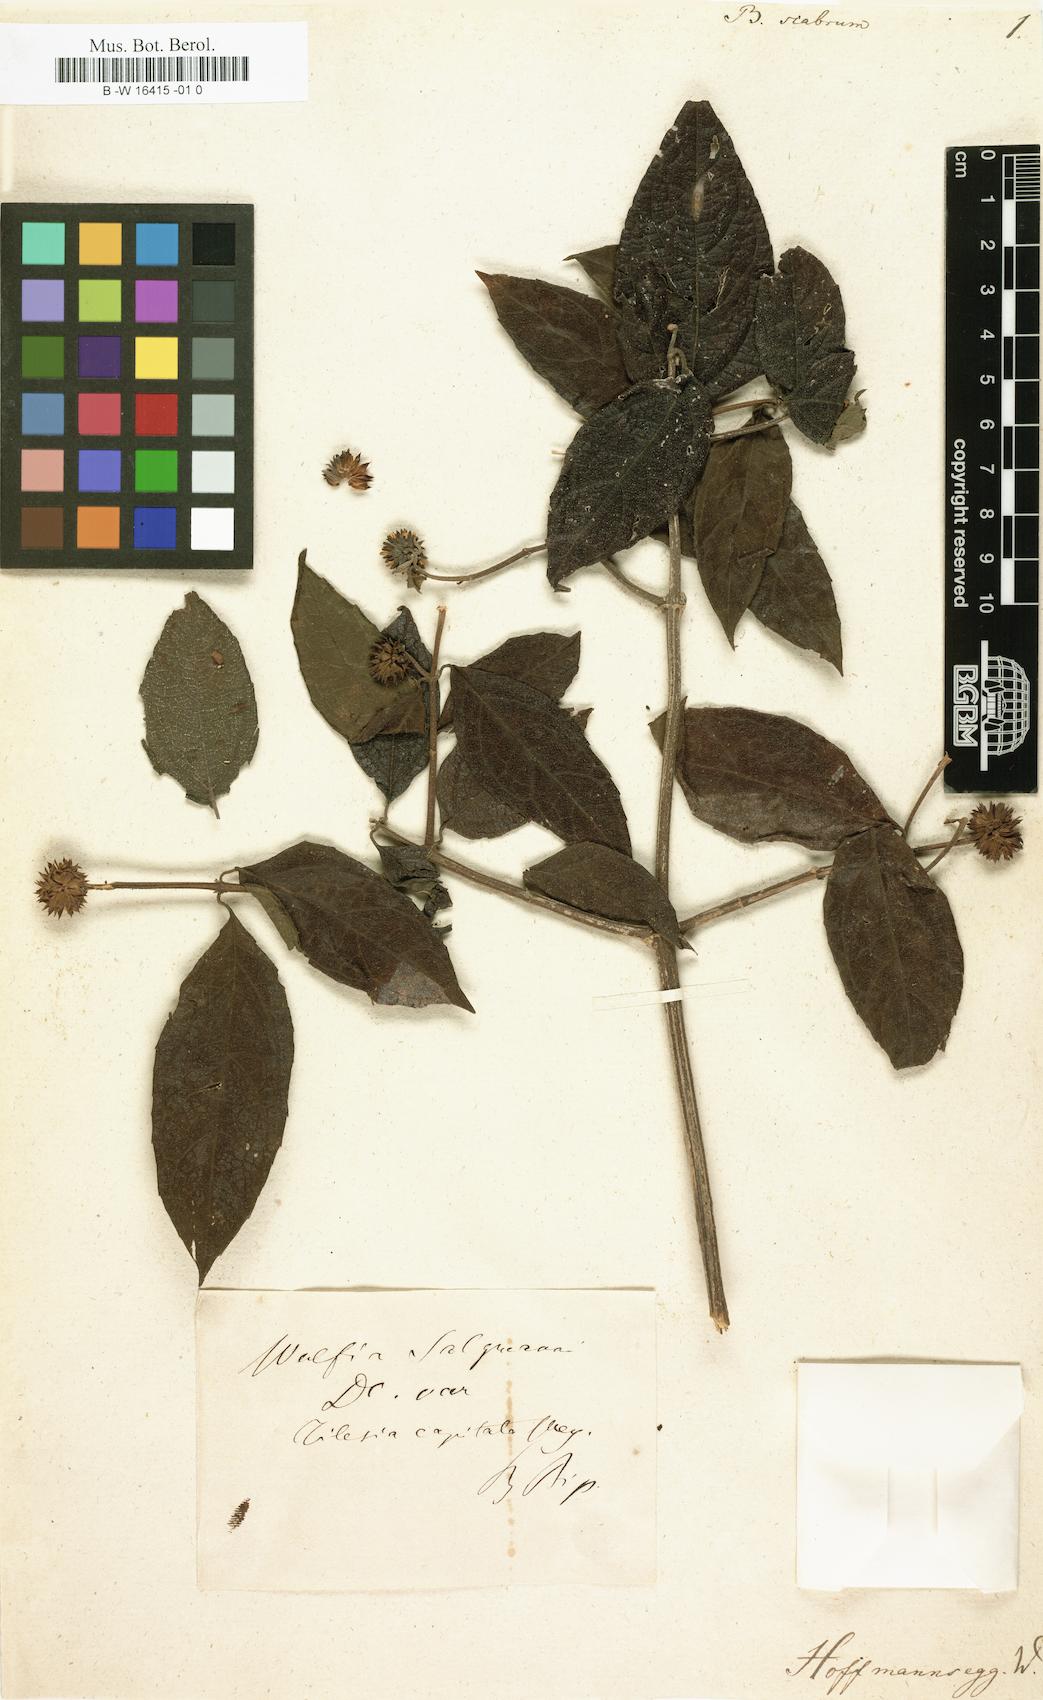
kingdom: Plantae
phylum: Tracheophyta
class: Magnoliopsida
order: Asterales
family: Asteraceae
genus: Buphthalmum
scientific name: Buphthalmum scabrum
